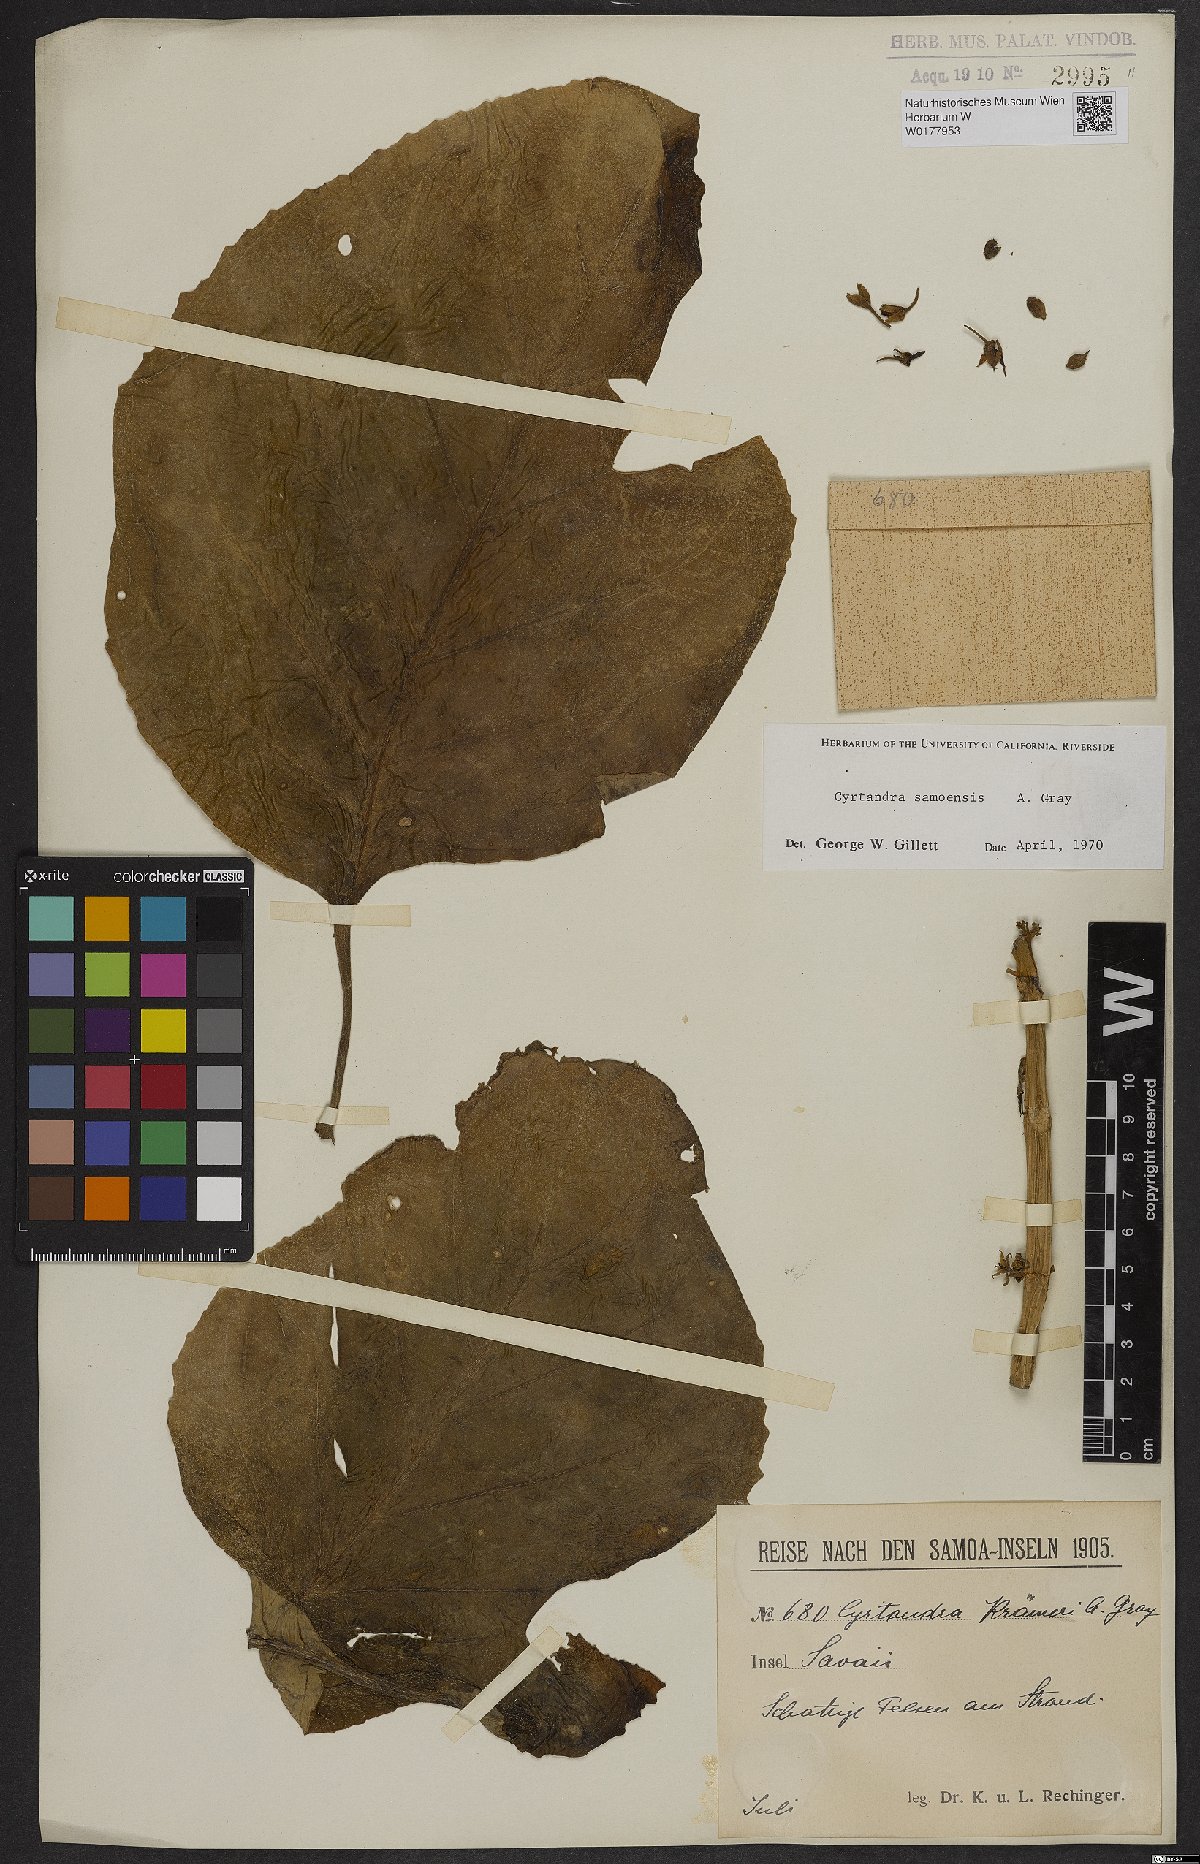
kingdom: Plantae
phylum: Tracheophyta
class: Magnoliopsida
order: Lamiales
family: Gesneriaceae
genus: Cyrtandra
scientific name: Cyrtandra samoensis
